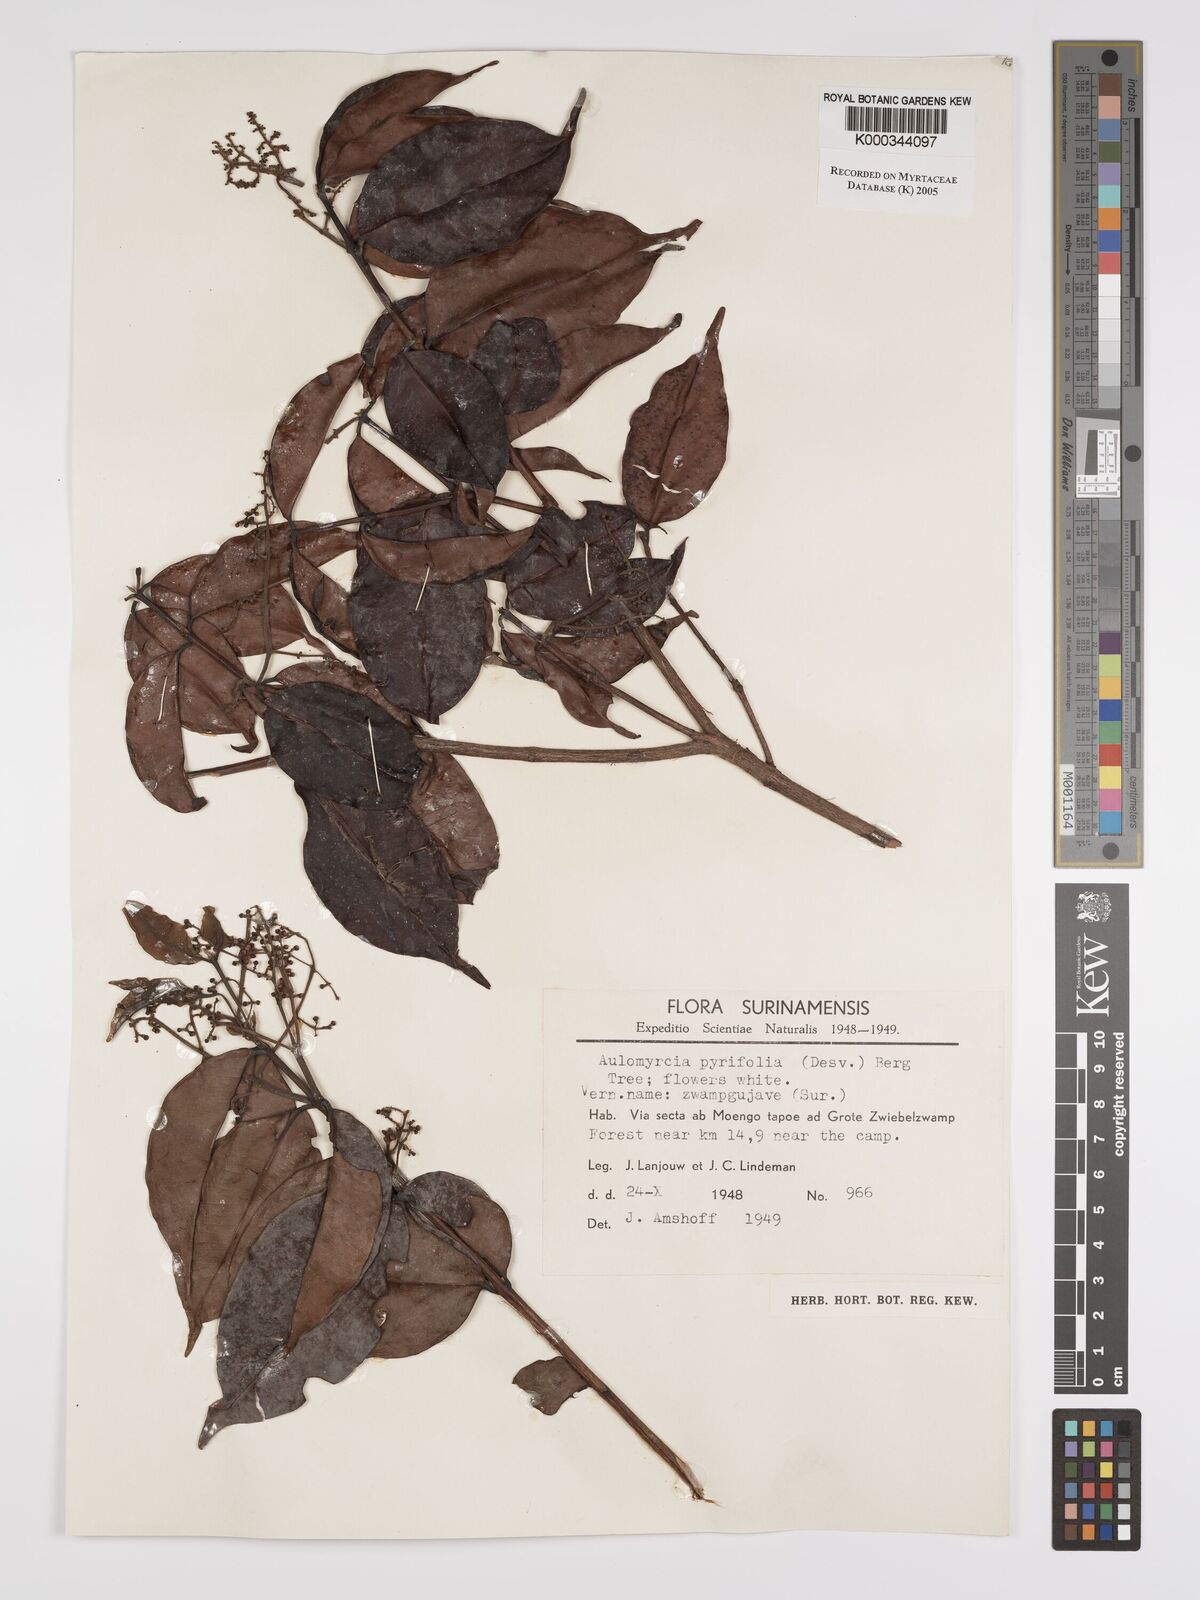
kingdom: Plantae
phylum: Tracheophyta
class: Magnoliopsida
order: Myrtales
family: Myrtaceae
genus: Myrcia
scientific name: Myrcia pyrifolia
